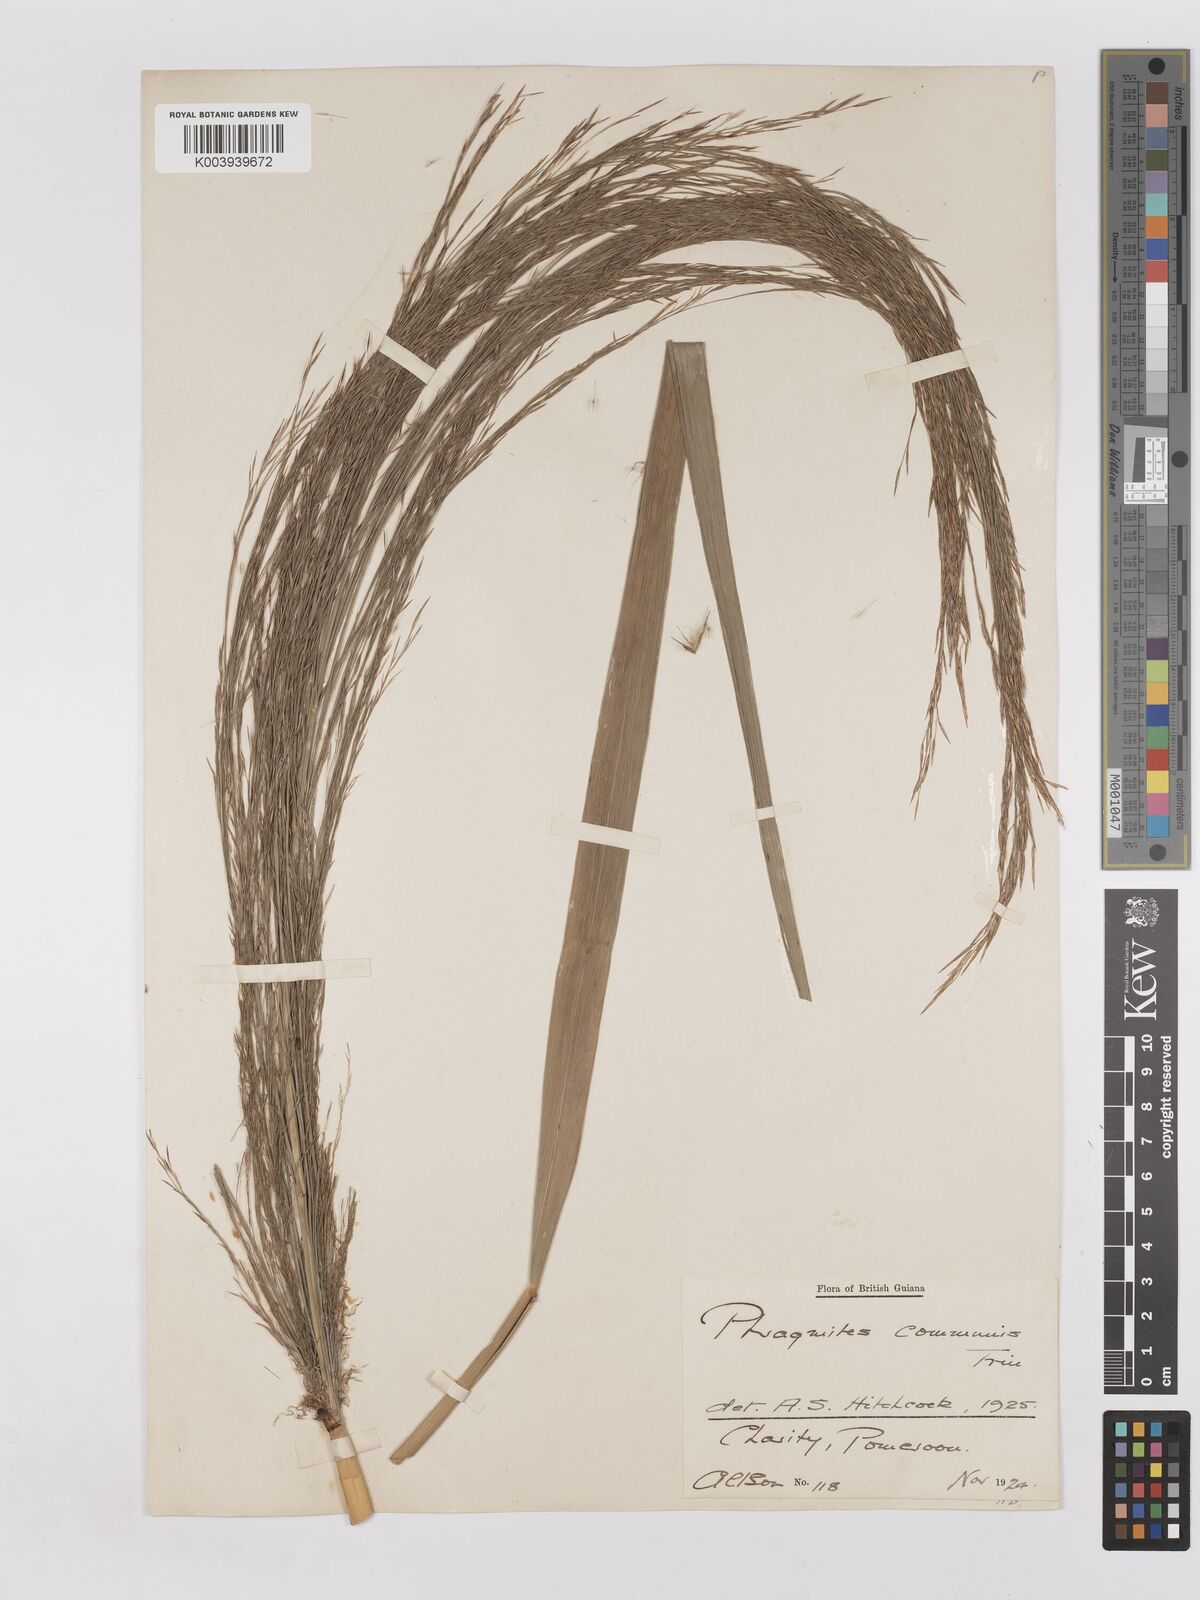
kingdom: Plantae
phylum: Tracheophyta
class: Liliopsida
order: Poales
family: Poaceae
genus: Phragmites
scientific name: Phragmites australis
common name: Common reed
